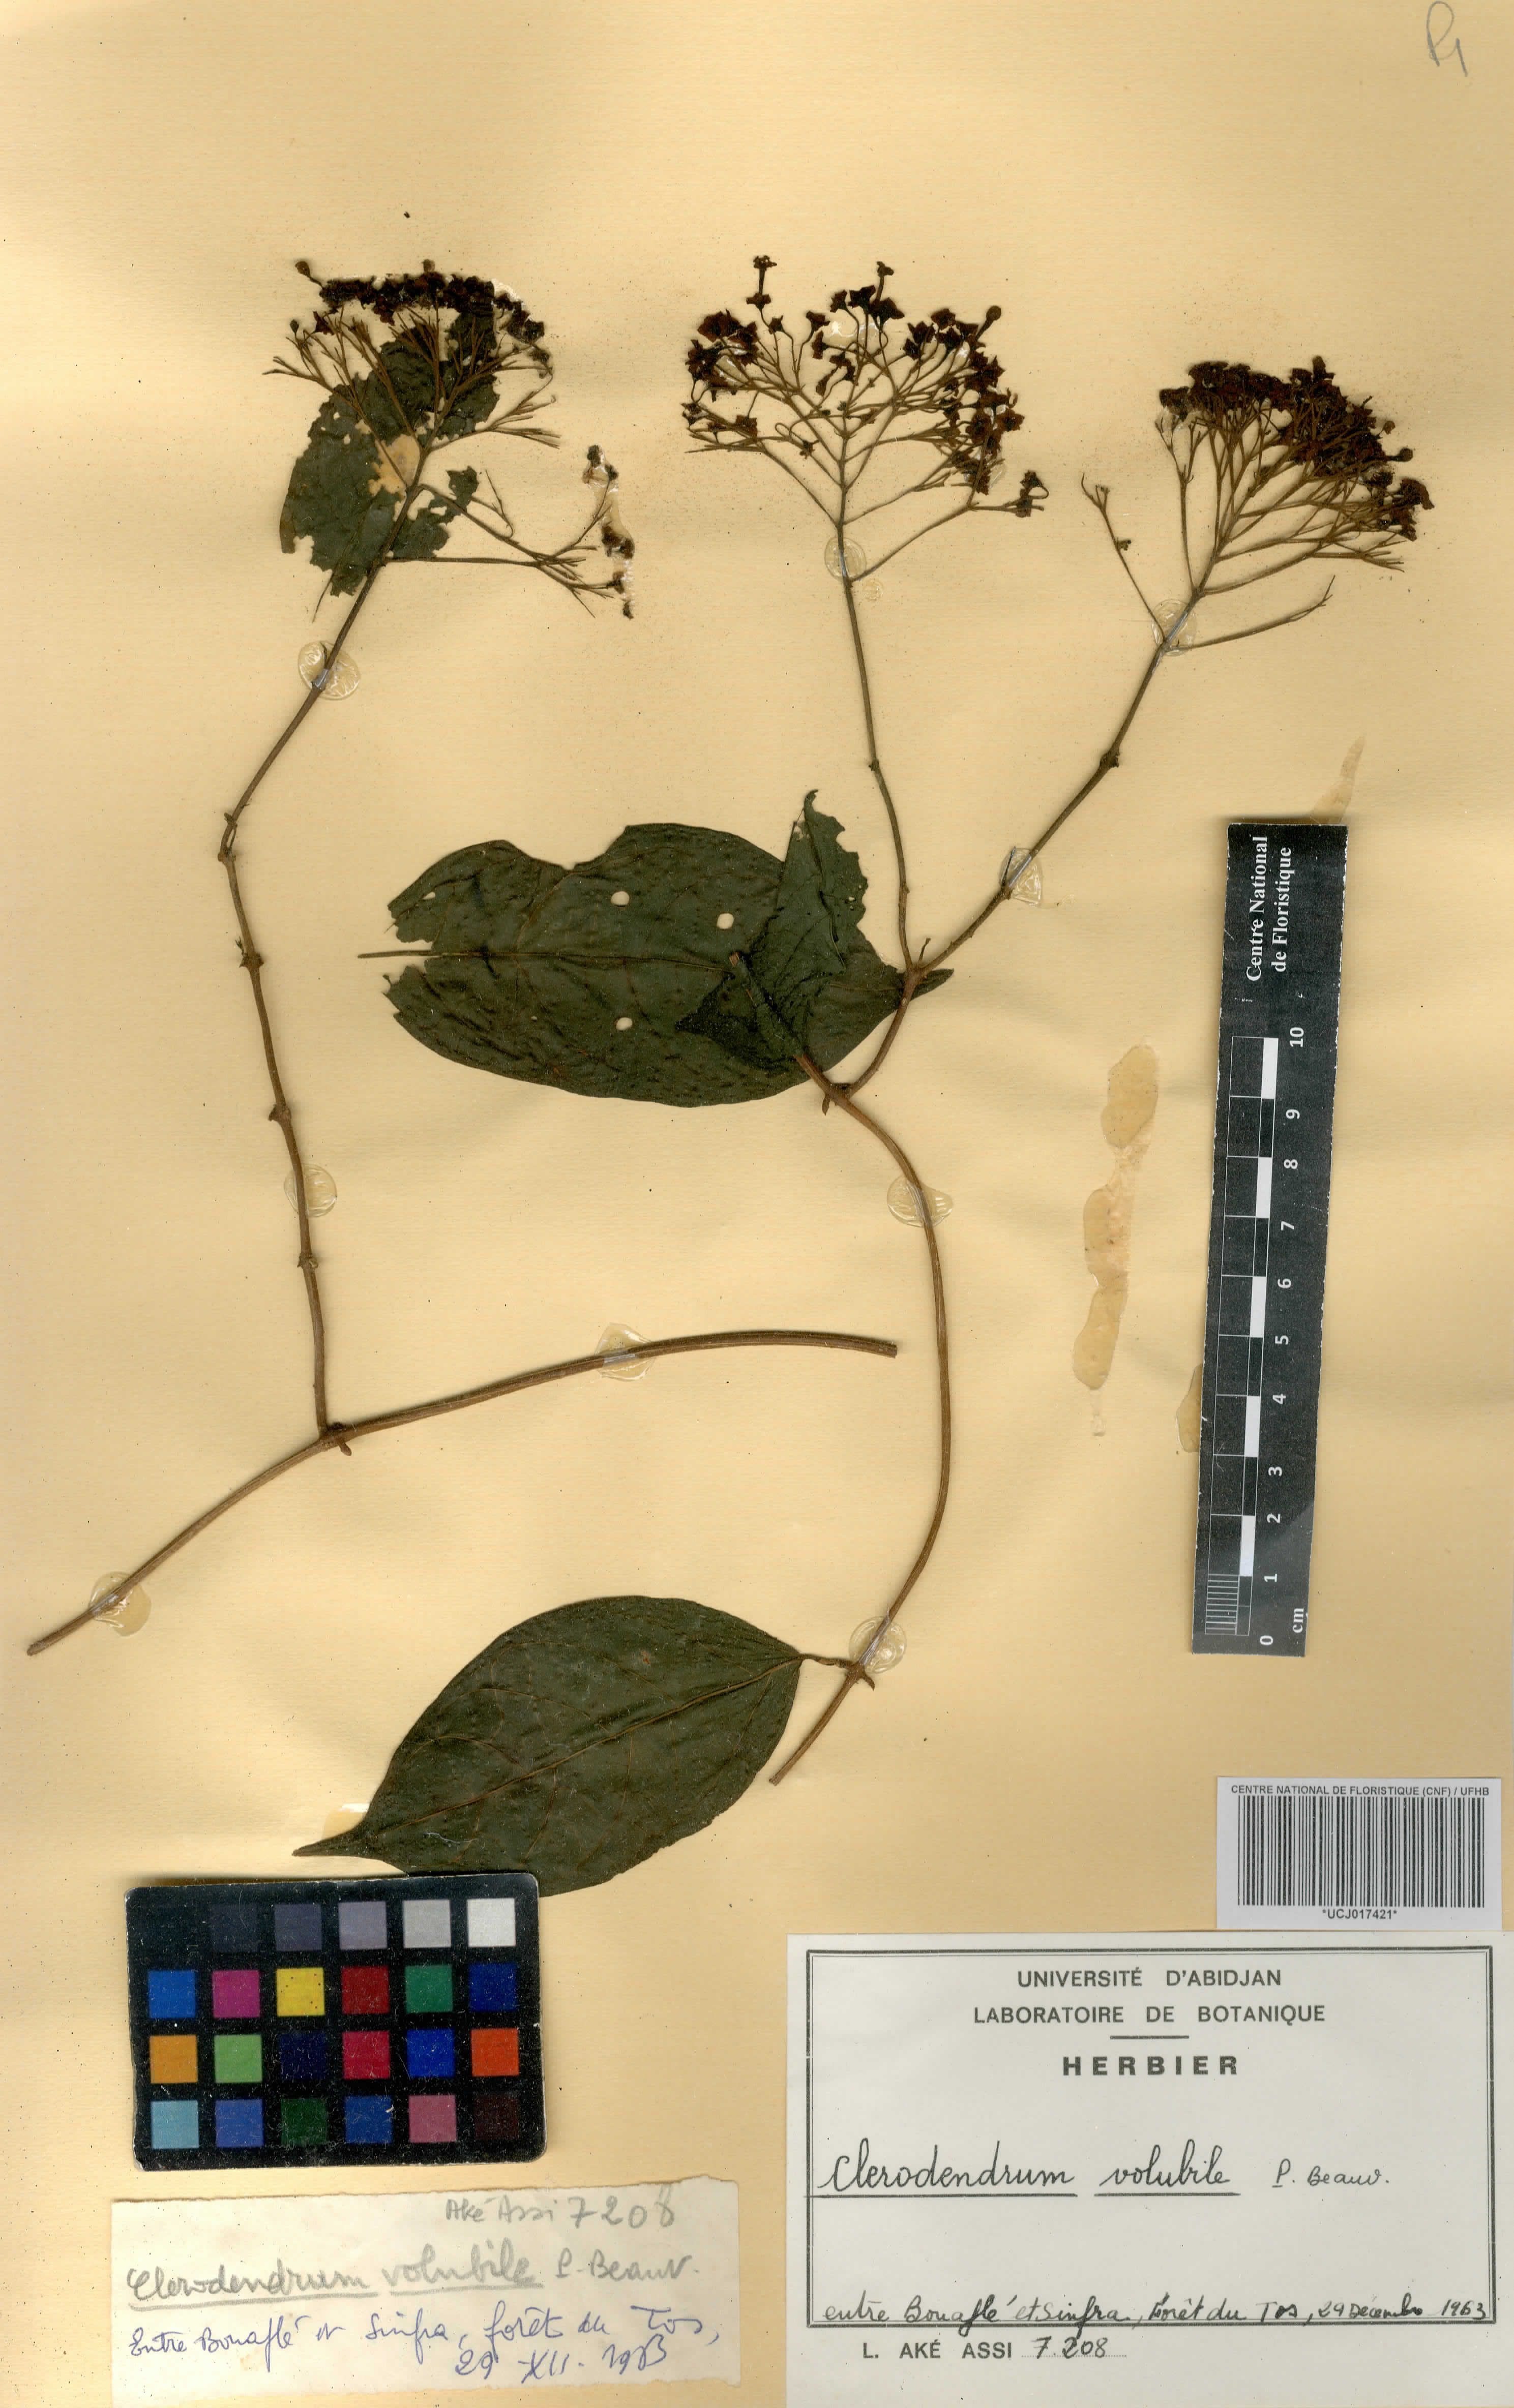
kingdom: Plantae
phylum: Tracheophyta
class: Magnoliopsida
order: Lamiales
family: Lamiaceae
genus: Clerodendrum
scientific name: Clerodendrum volubile
